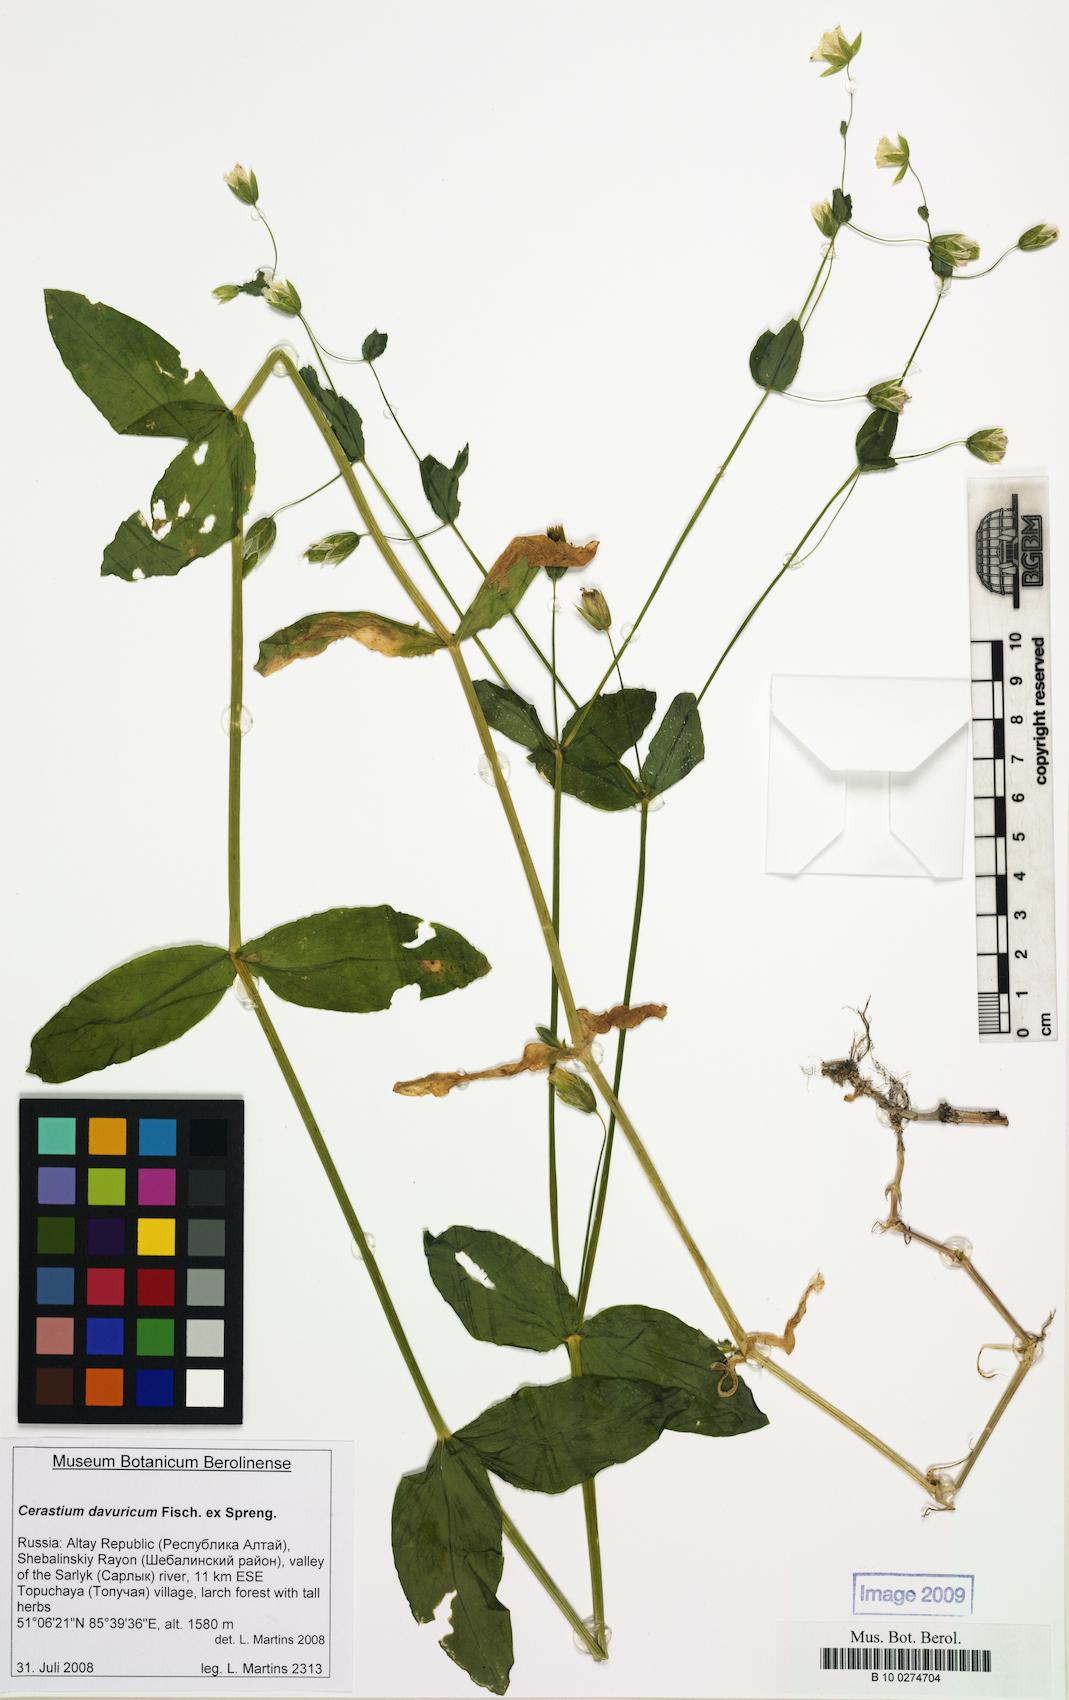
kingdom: Plantae
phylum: Tracheophyta
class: Magnoliopsida
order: Caryophyllales
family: Caryophyllaceae
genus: Dichodon
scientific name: Dichodon davuricum
